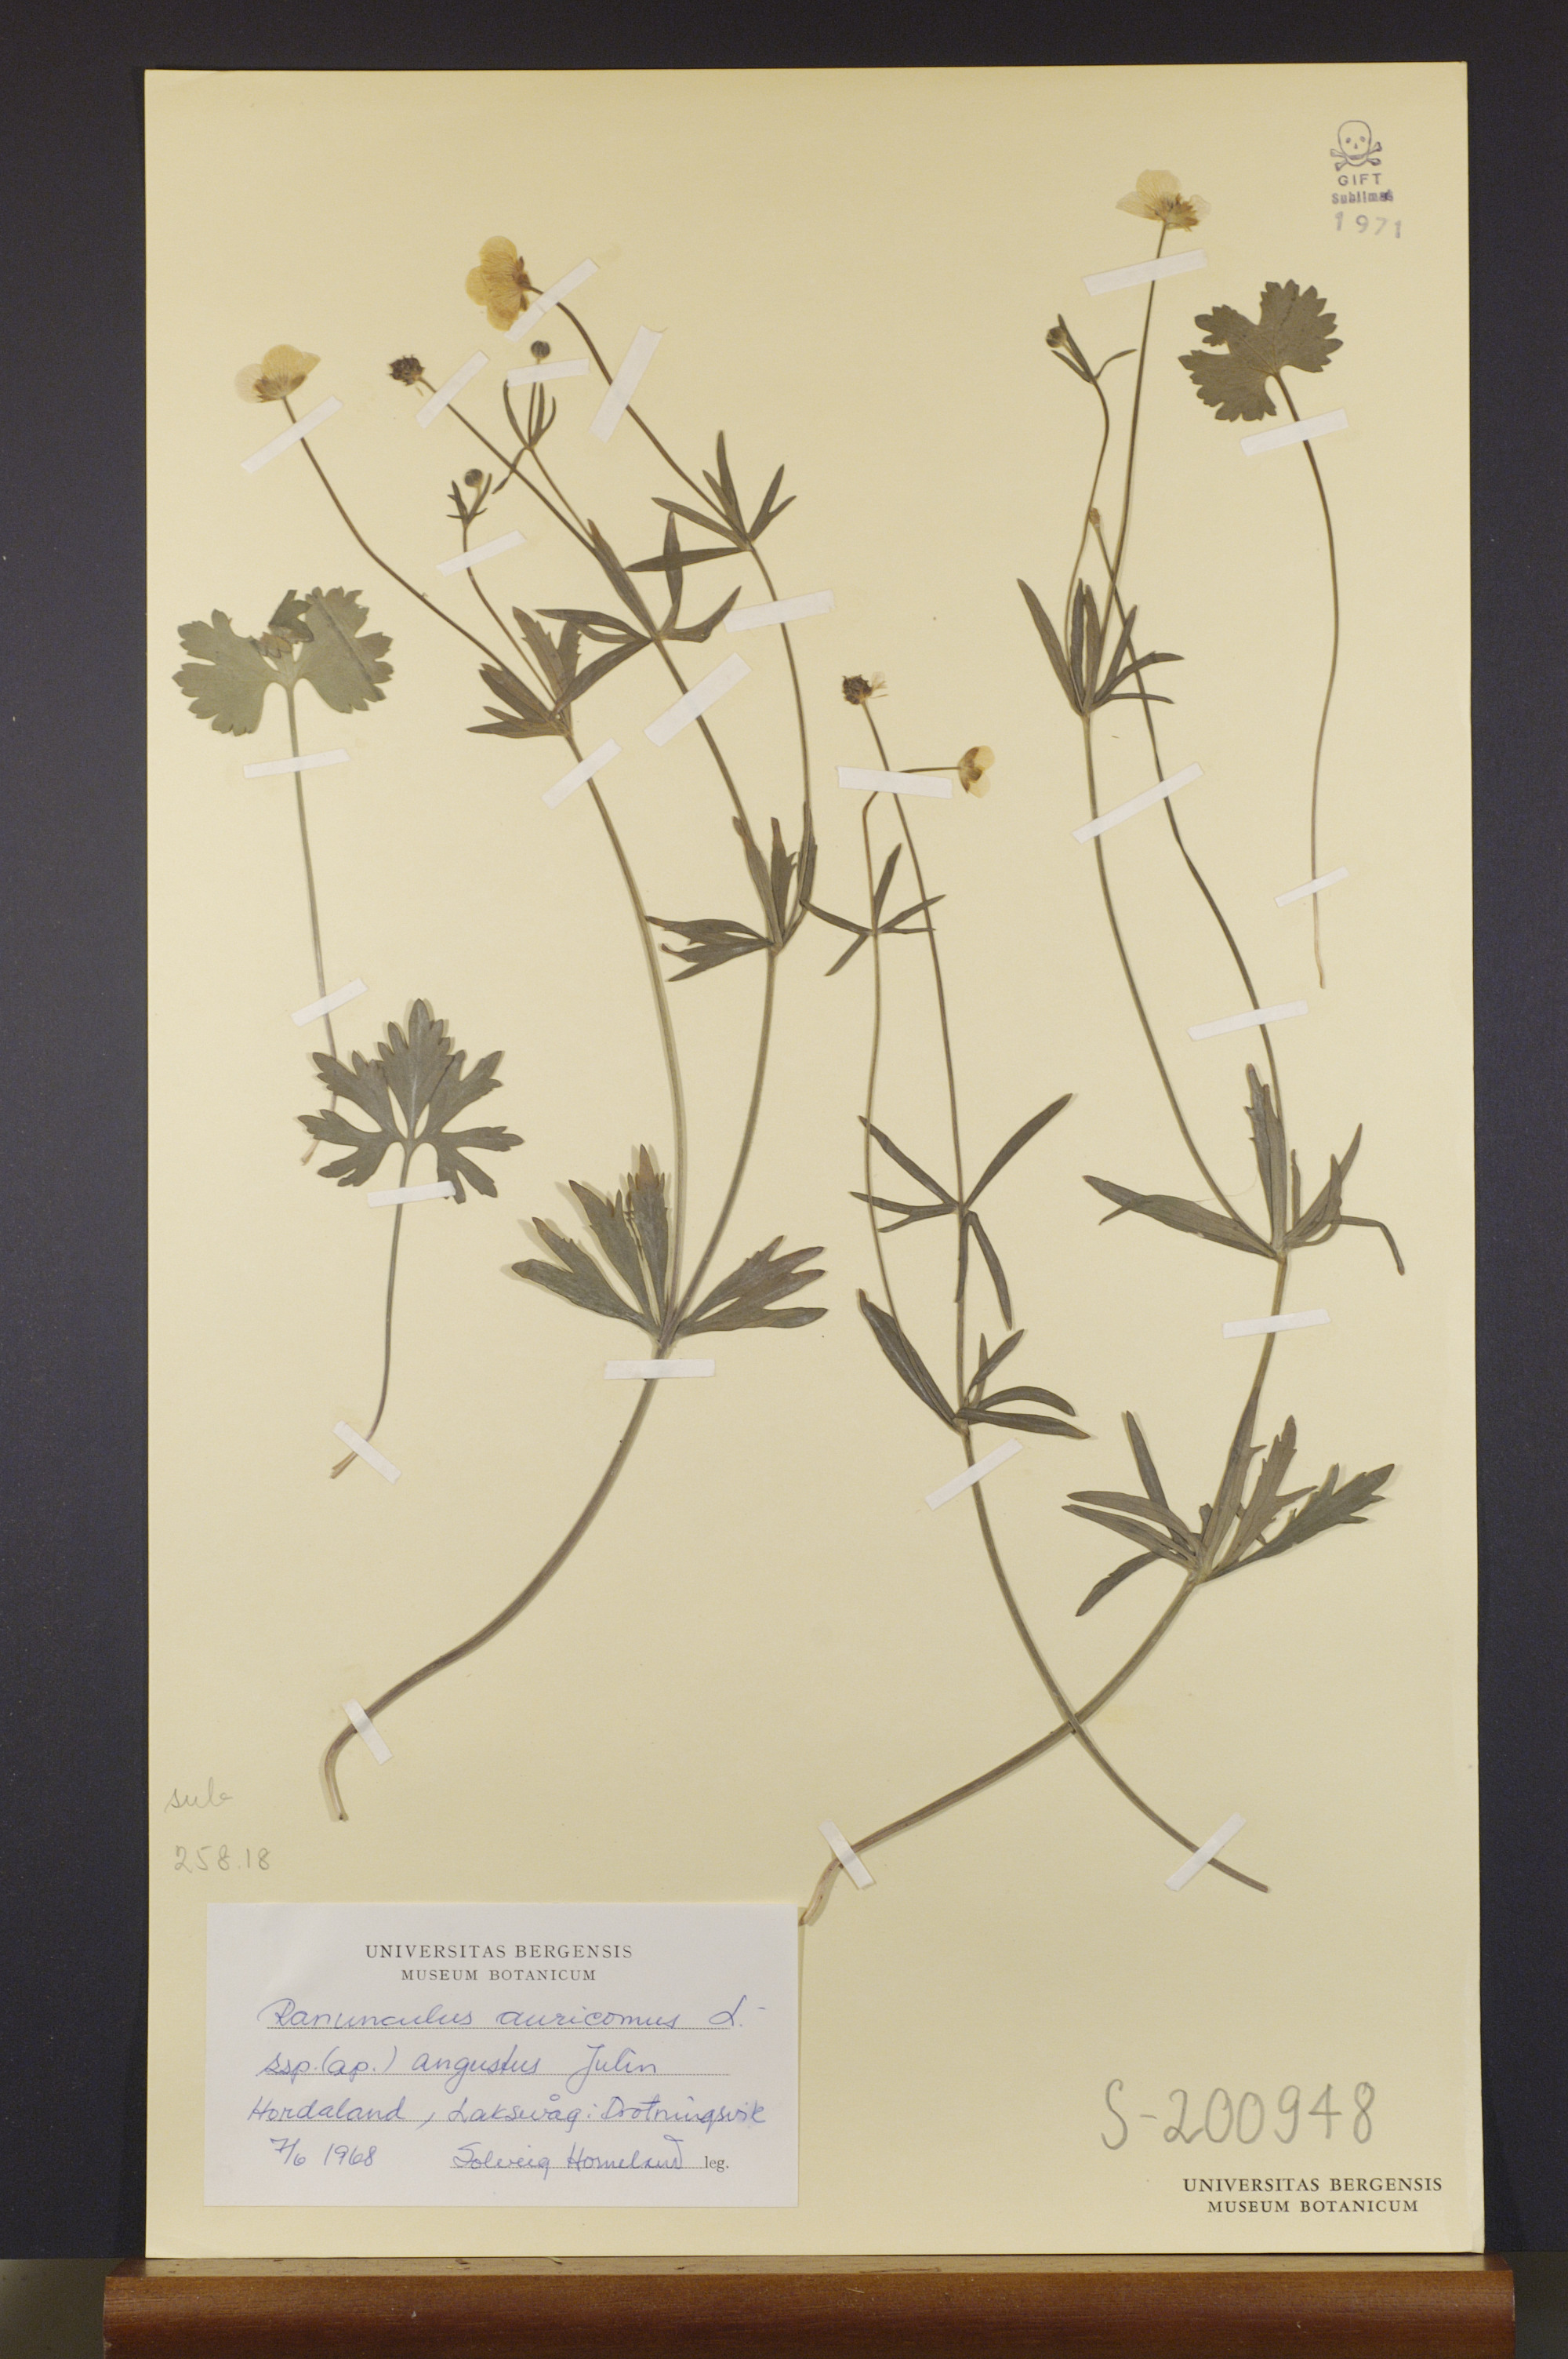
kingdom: Plantae
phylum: Tracheophyta
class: Magnoliopsida
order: Ranunculales
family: Ranunculaceae
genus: Ranunculus
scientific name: Ranunculus angustus
